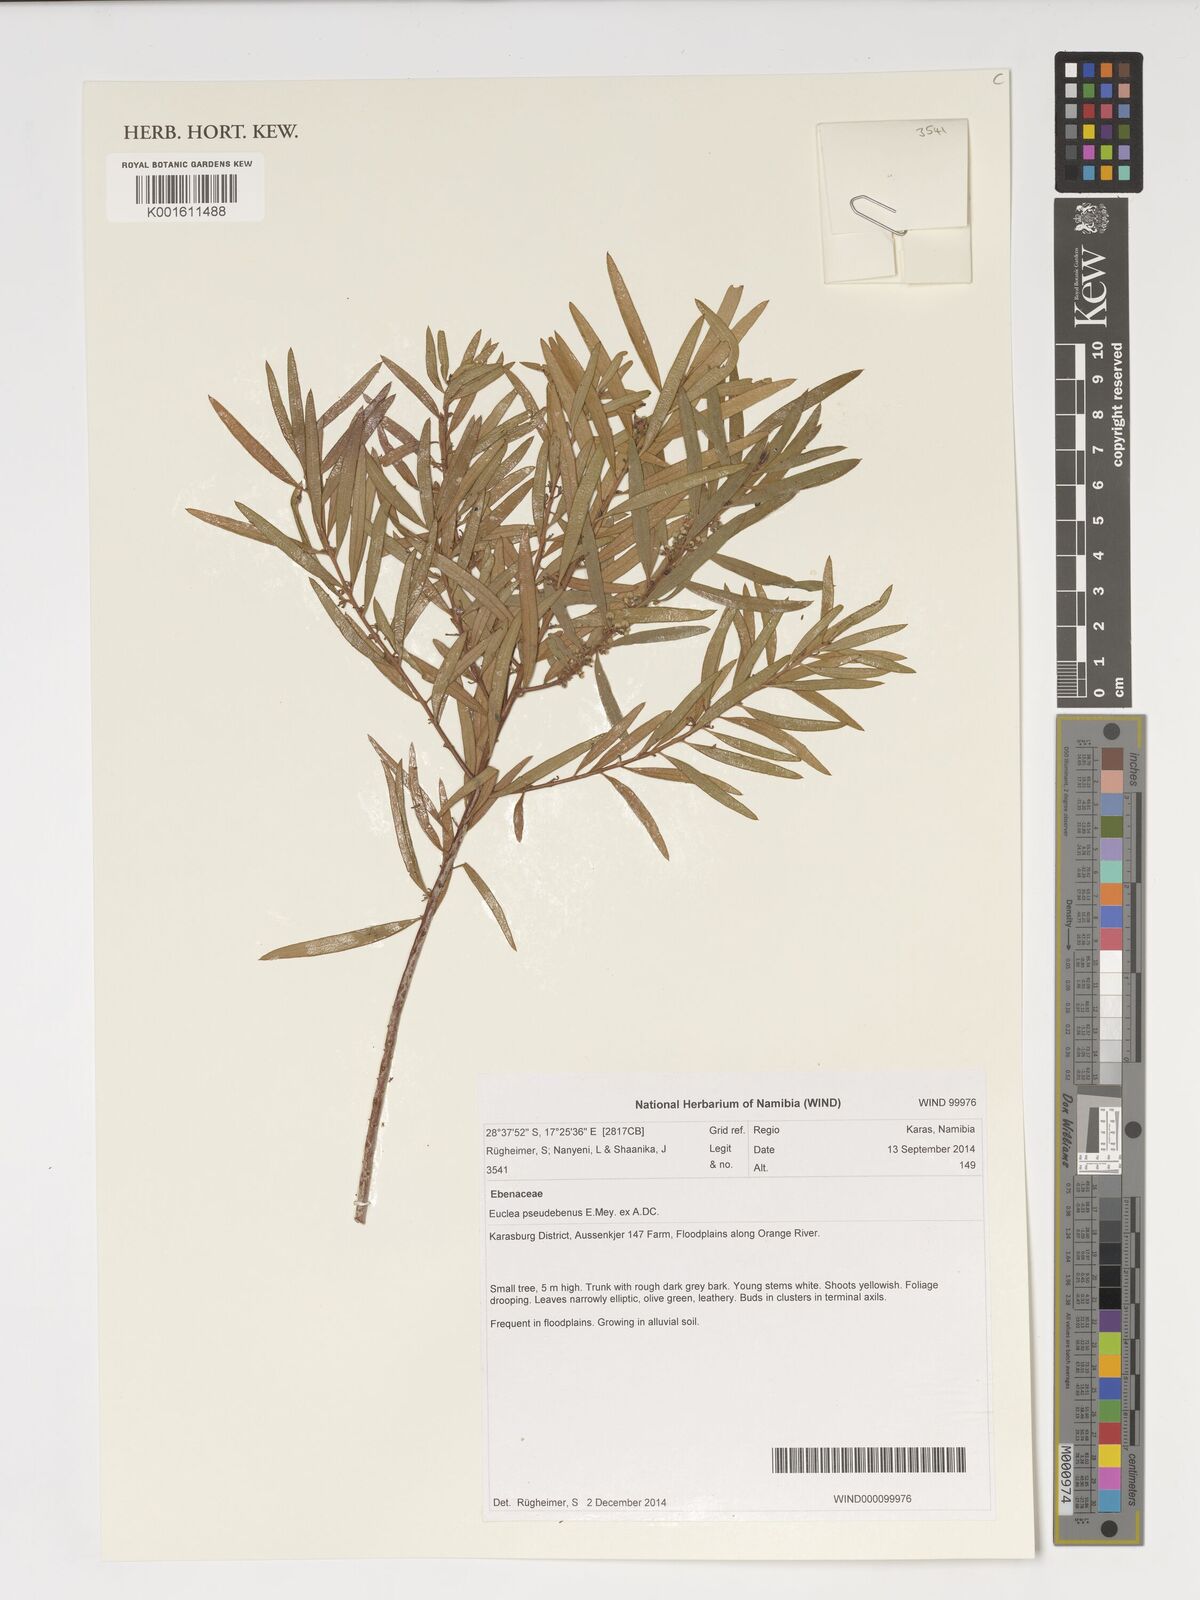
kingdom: Plantae
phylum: Tracheophyta
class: Magnoliopsida
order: Ericales
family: Ebenaceae
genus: Euclea
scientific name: Euclea pseudebenus
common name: Black ebony
